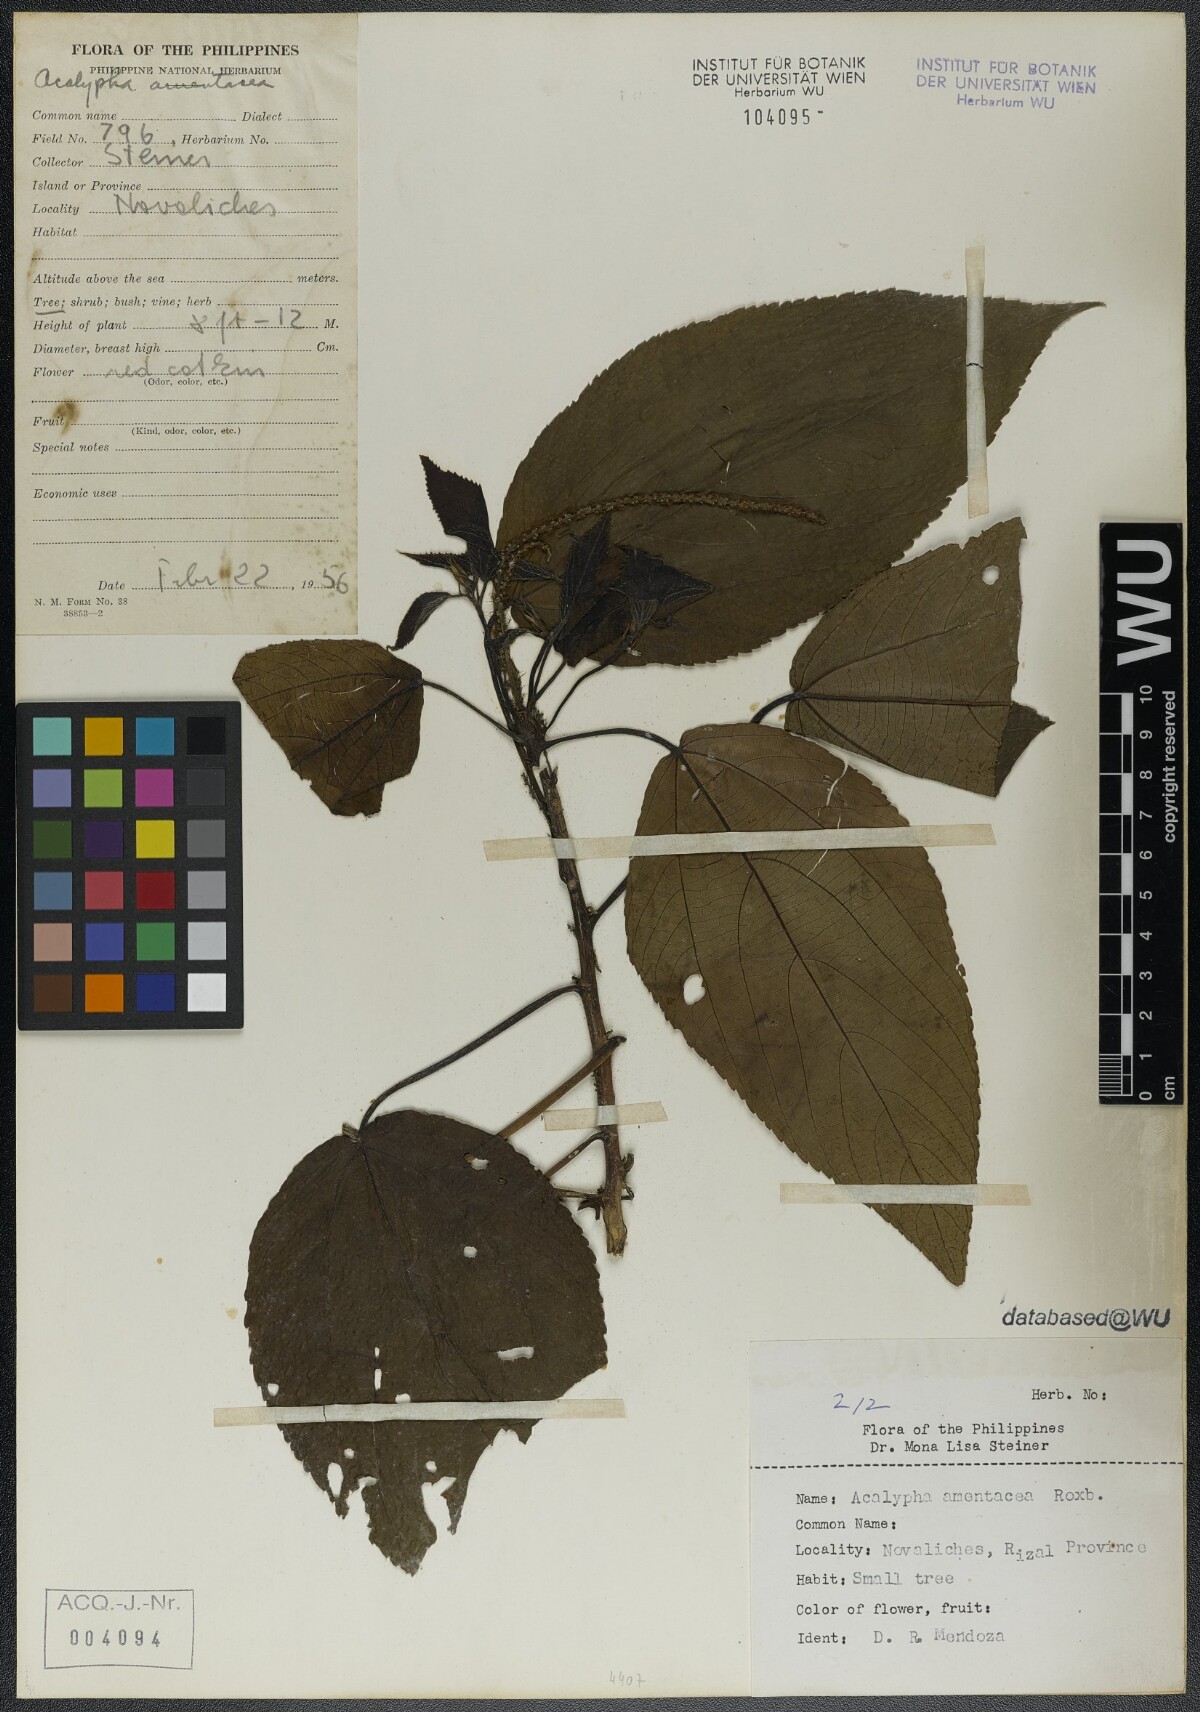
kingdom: Plantae
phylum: Tracheophyta
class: Magnoliopsida
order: Malpighiales
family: Euphorbiaceae
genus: Acalypha
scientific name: Acalypha amentacea
